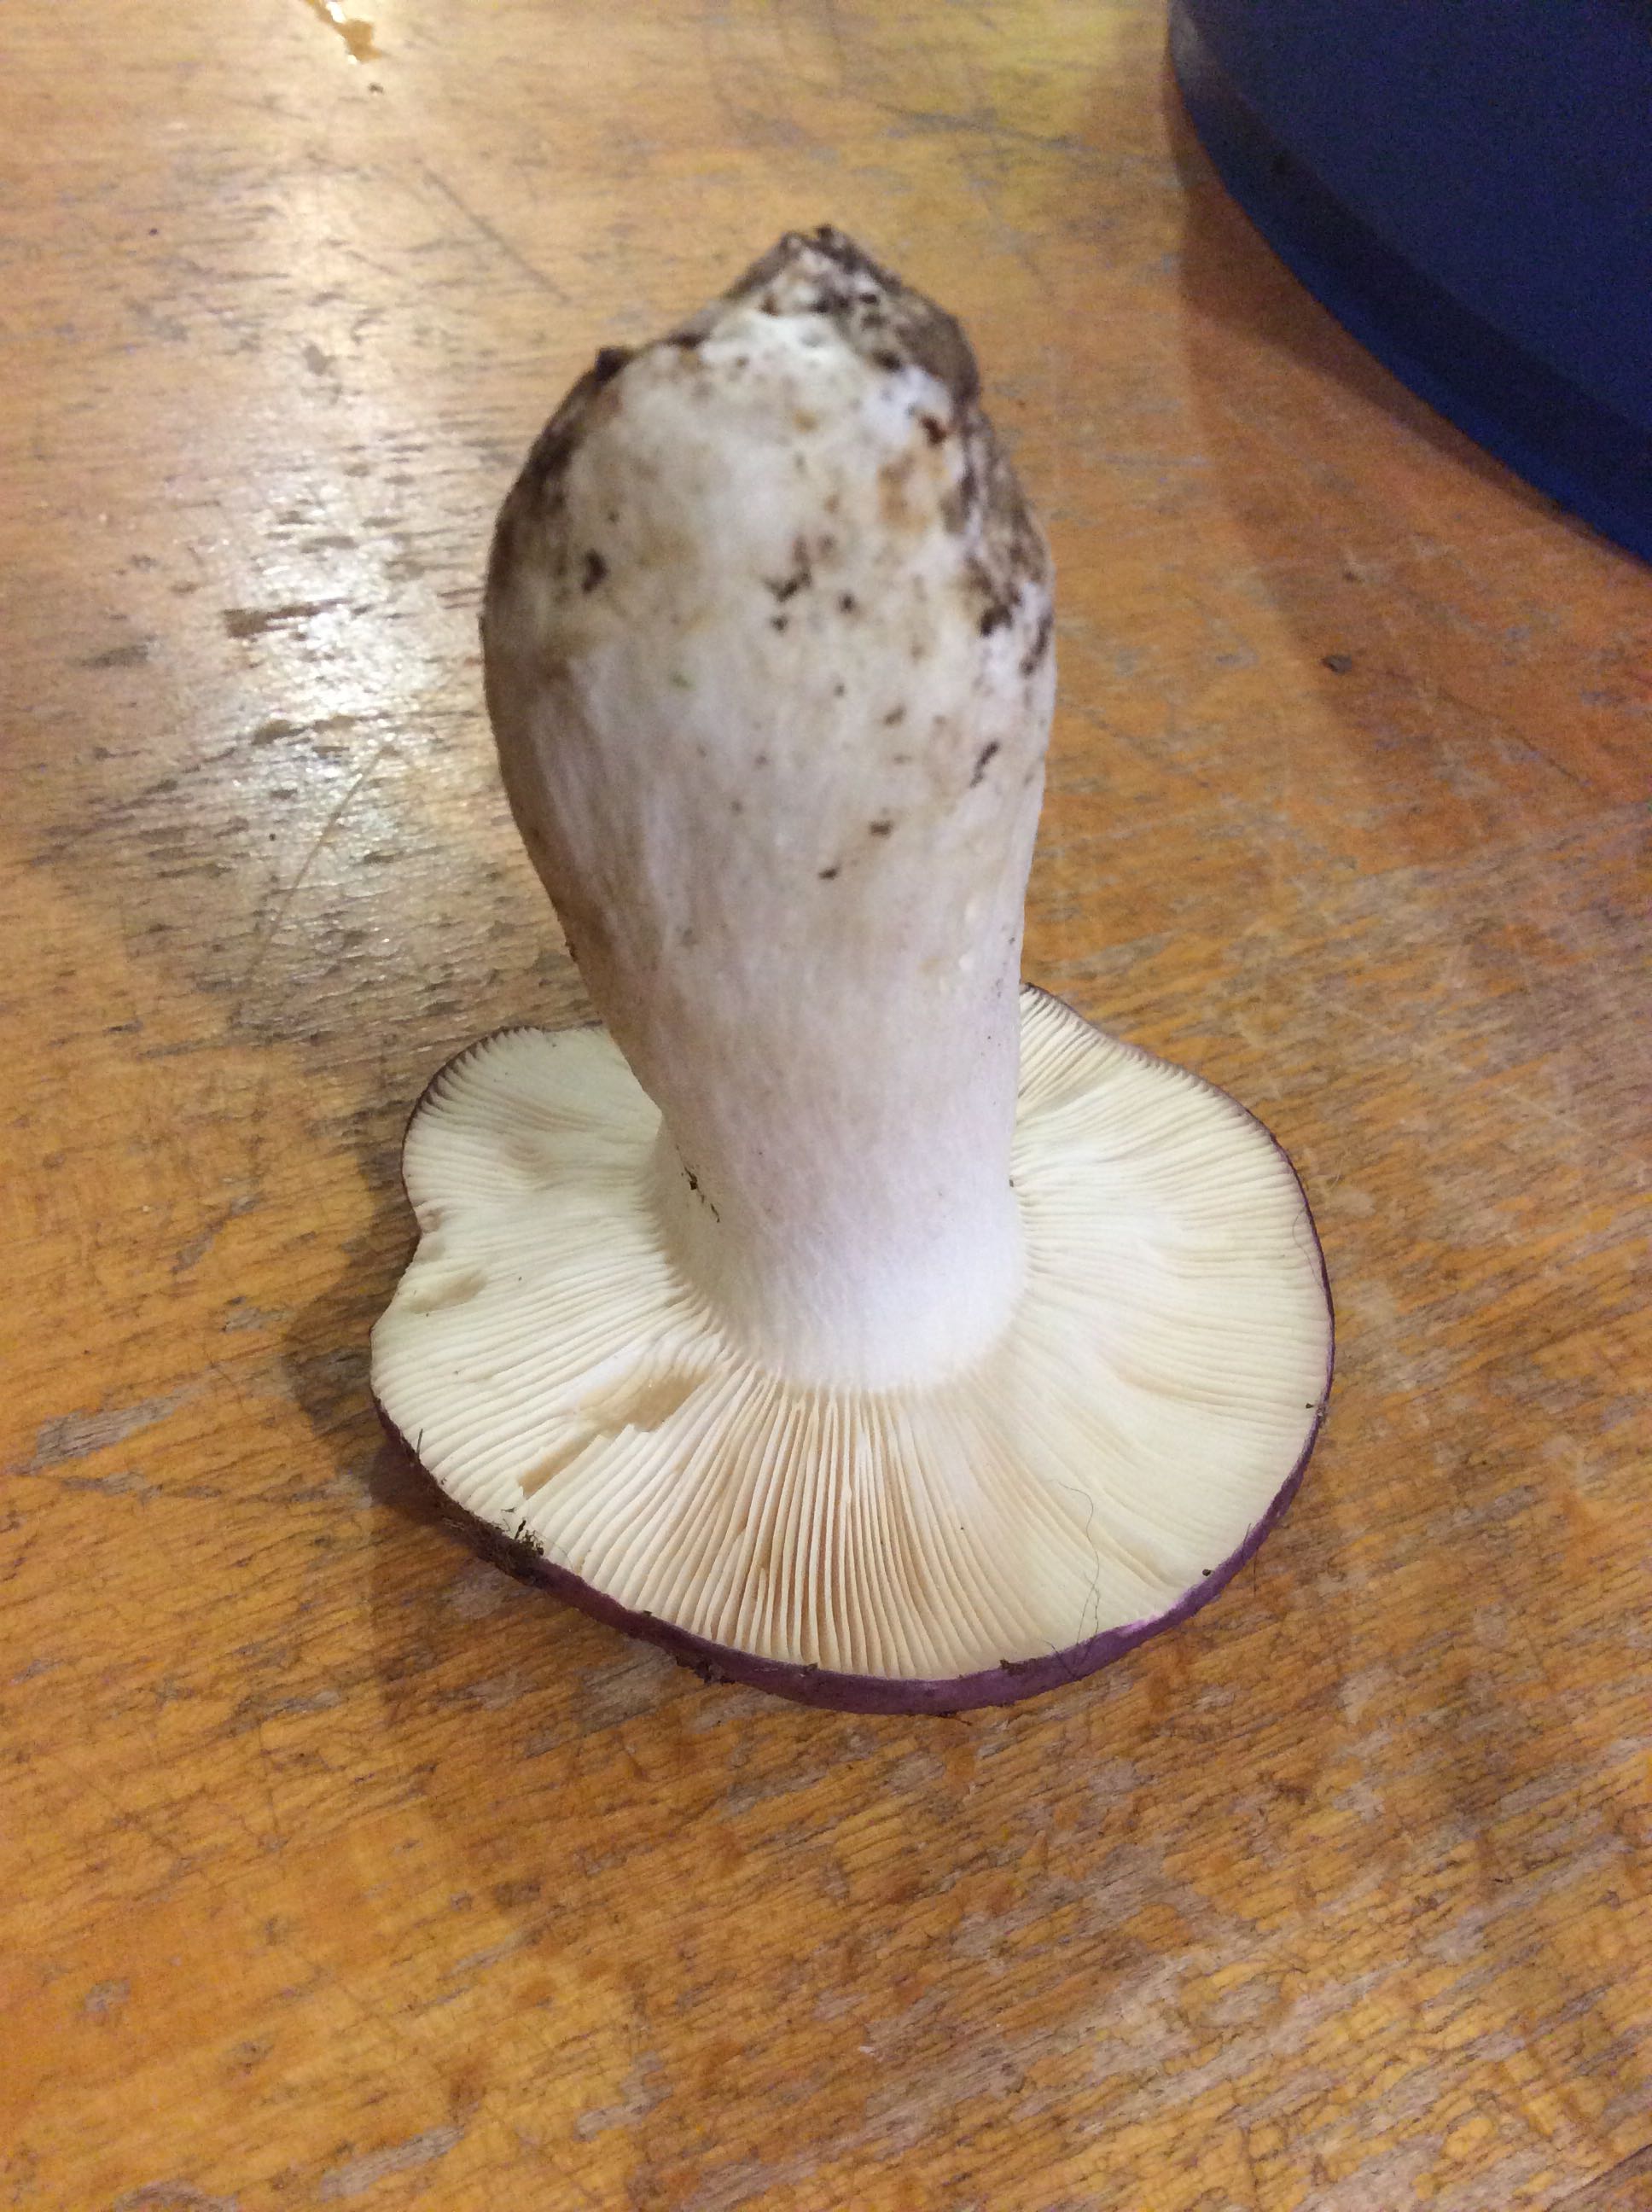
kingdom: Fungi
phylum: Basidiomycota
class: Agaricomycetes
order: Russulales
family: Russulaceae
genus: Russula
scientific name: Russula cyanoxantha
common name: broget skørhat
